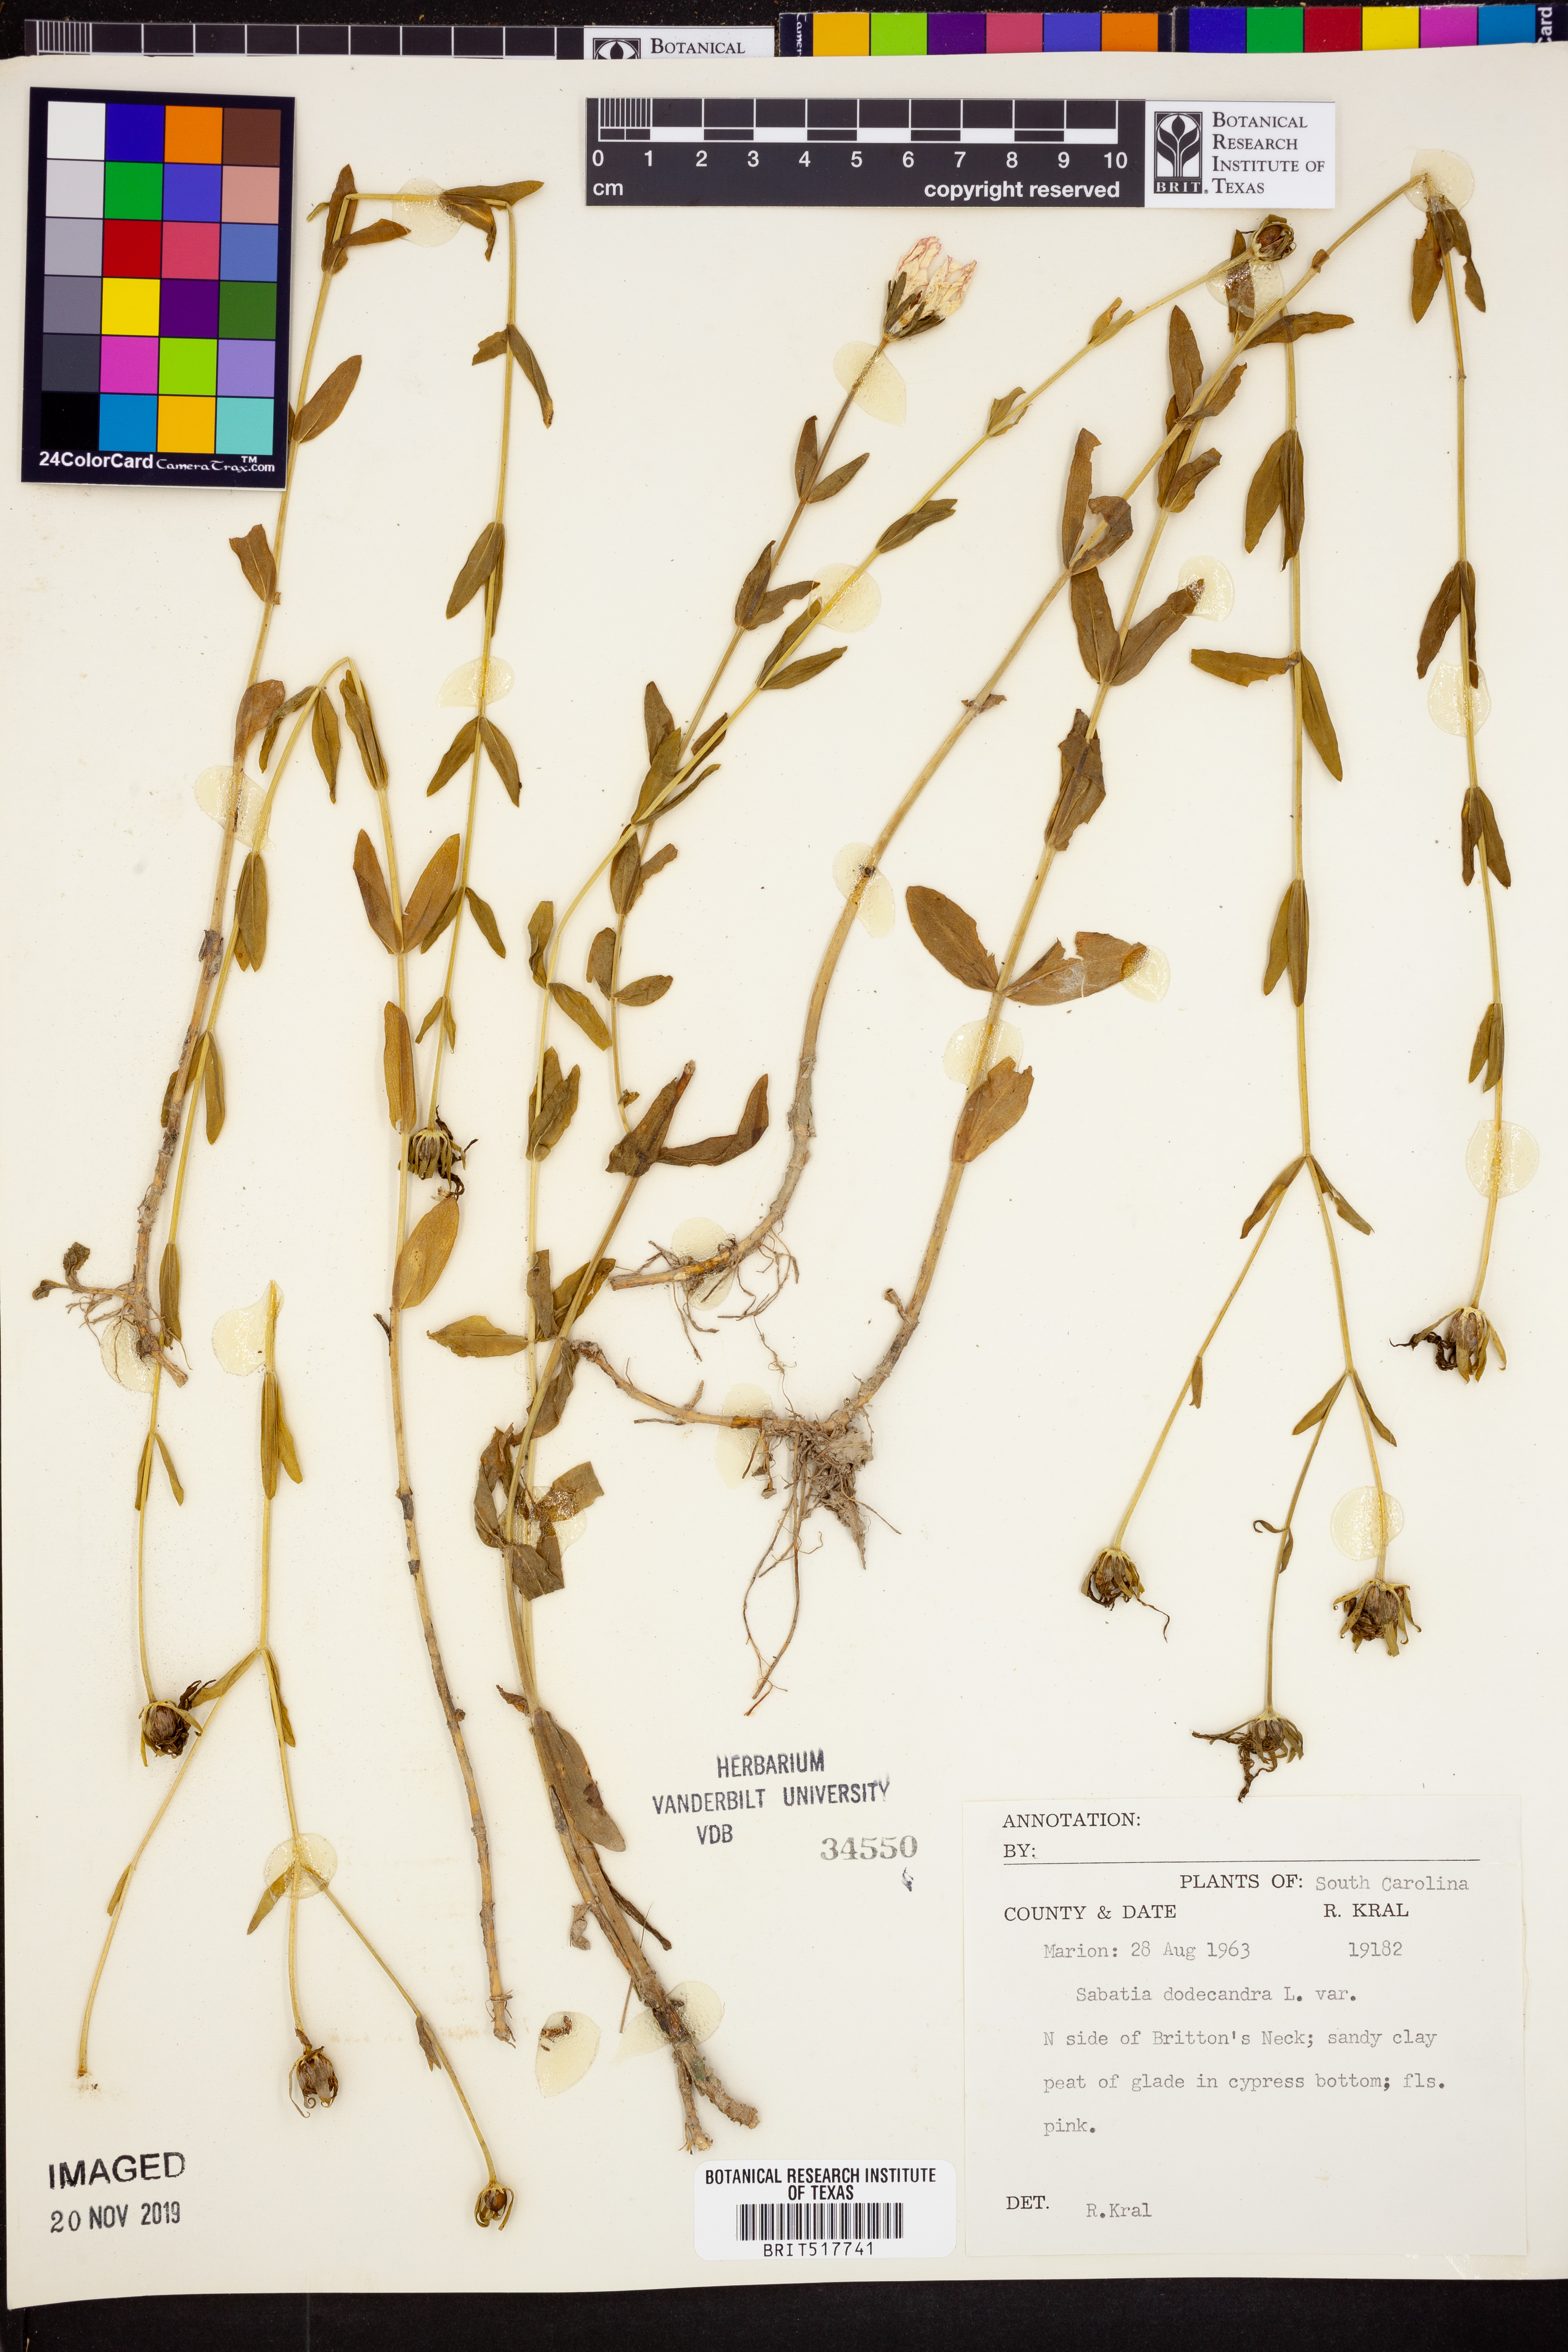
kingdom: Plantae
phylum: Tracheophyta
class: Magnoliopsida
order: Gentianales
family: Gentianaceae
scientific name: Gentianaceae
